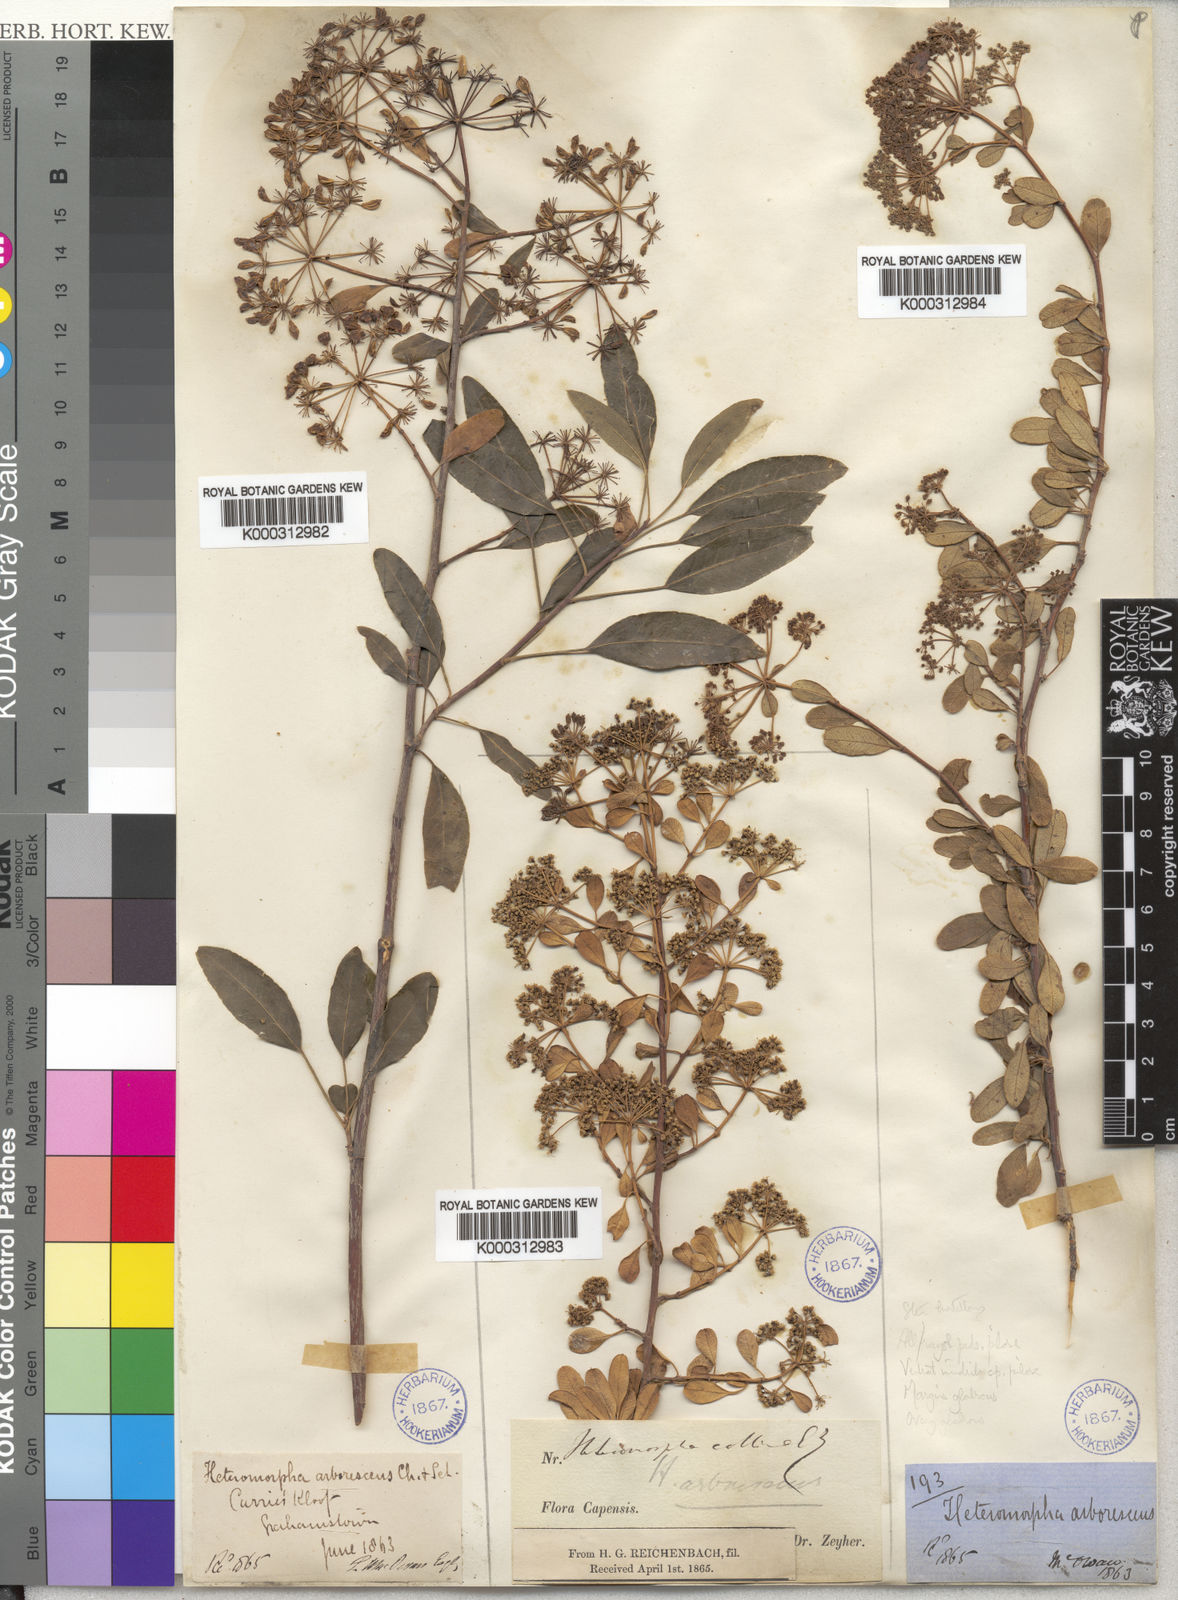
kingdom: Plantae
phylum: Tracheophyta
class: Magnoliopsida
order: Apiales
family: Apiaceae
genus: Heteromorpha
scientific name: Heteromorpha arborescens
